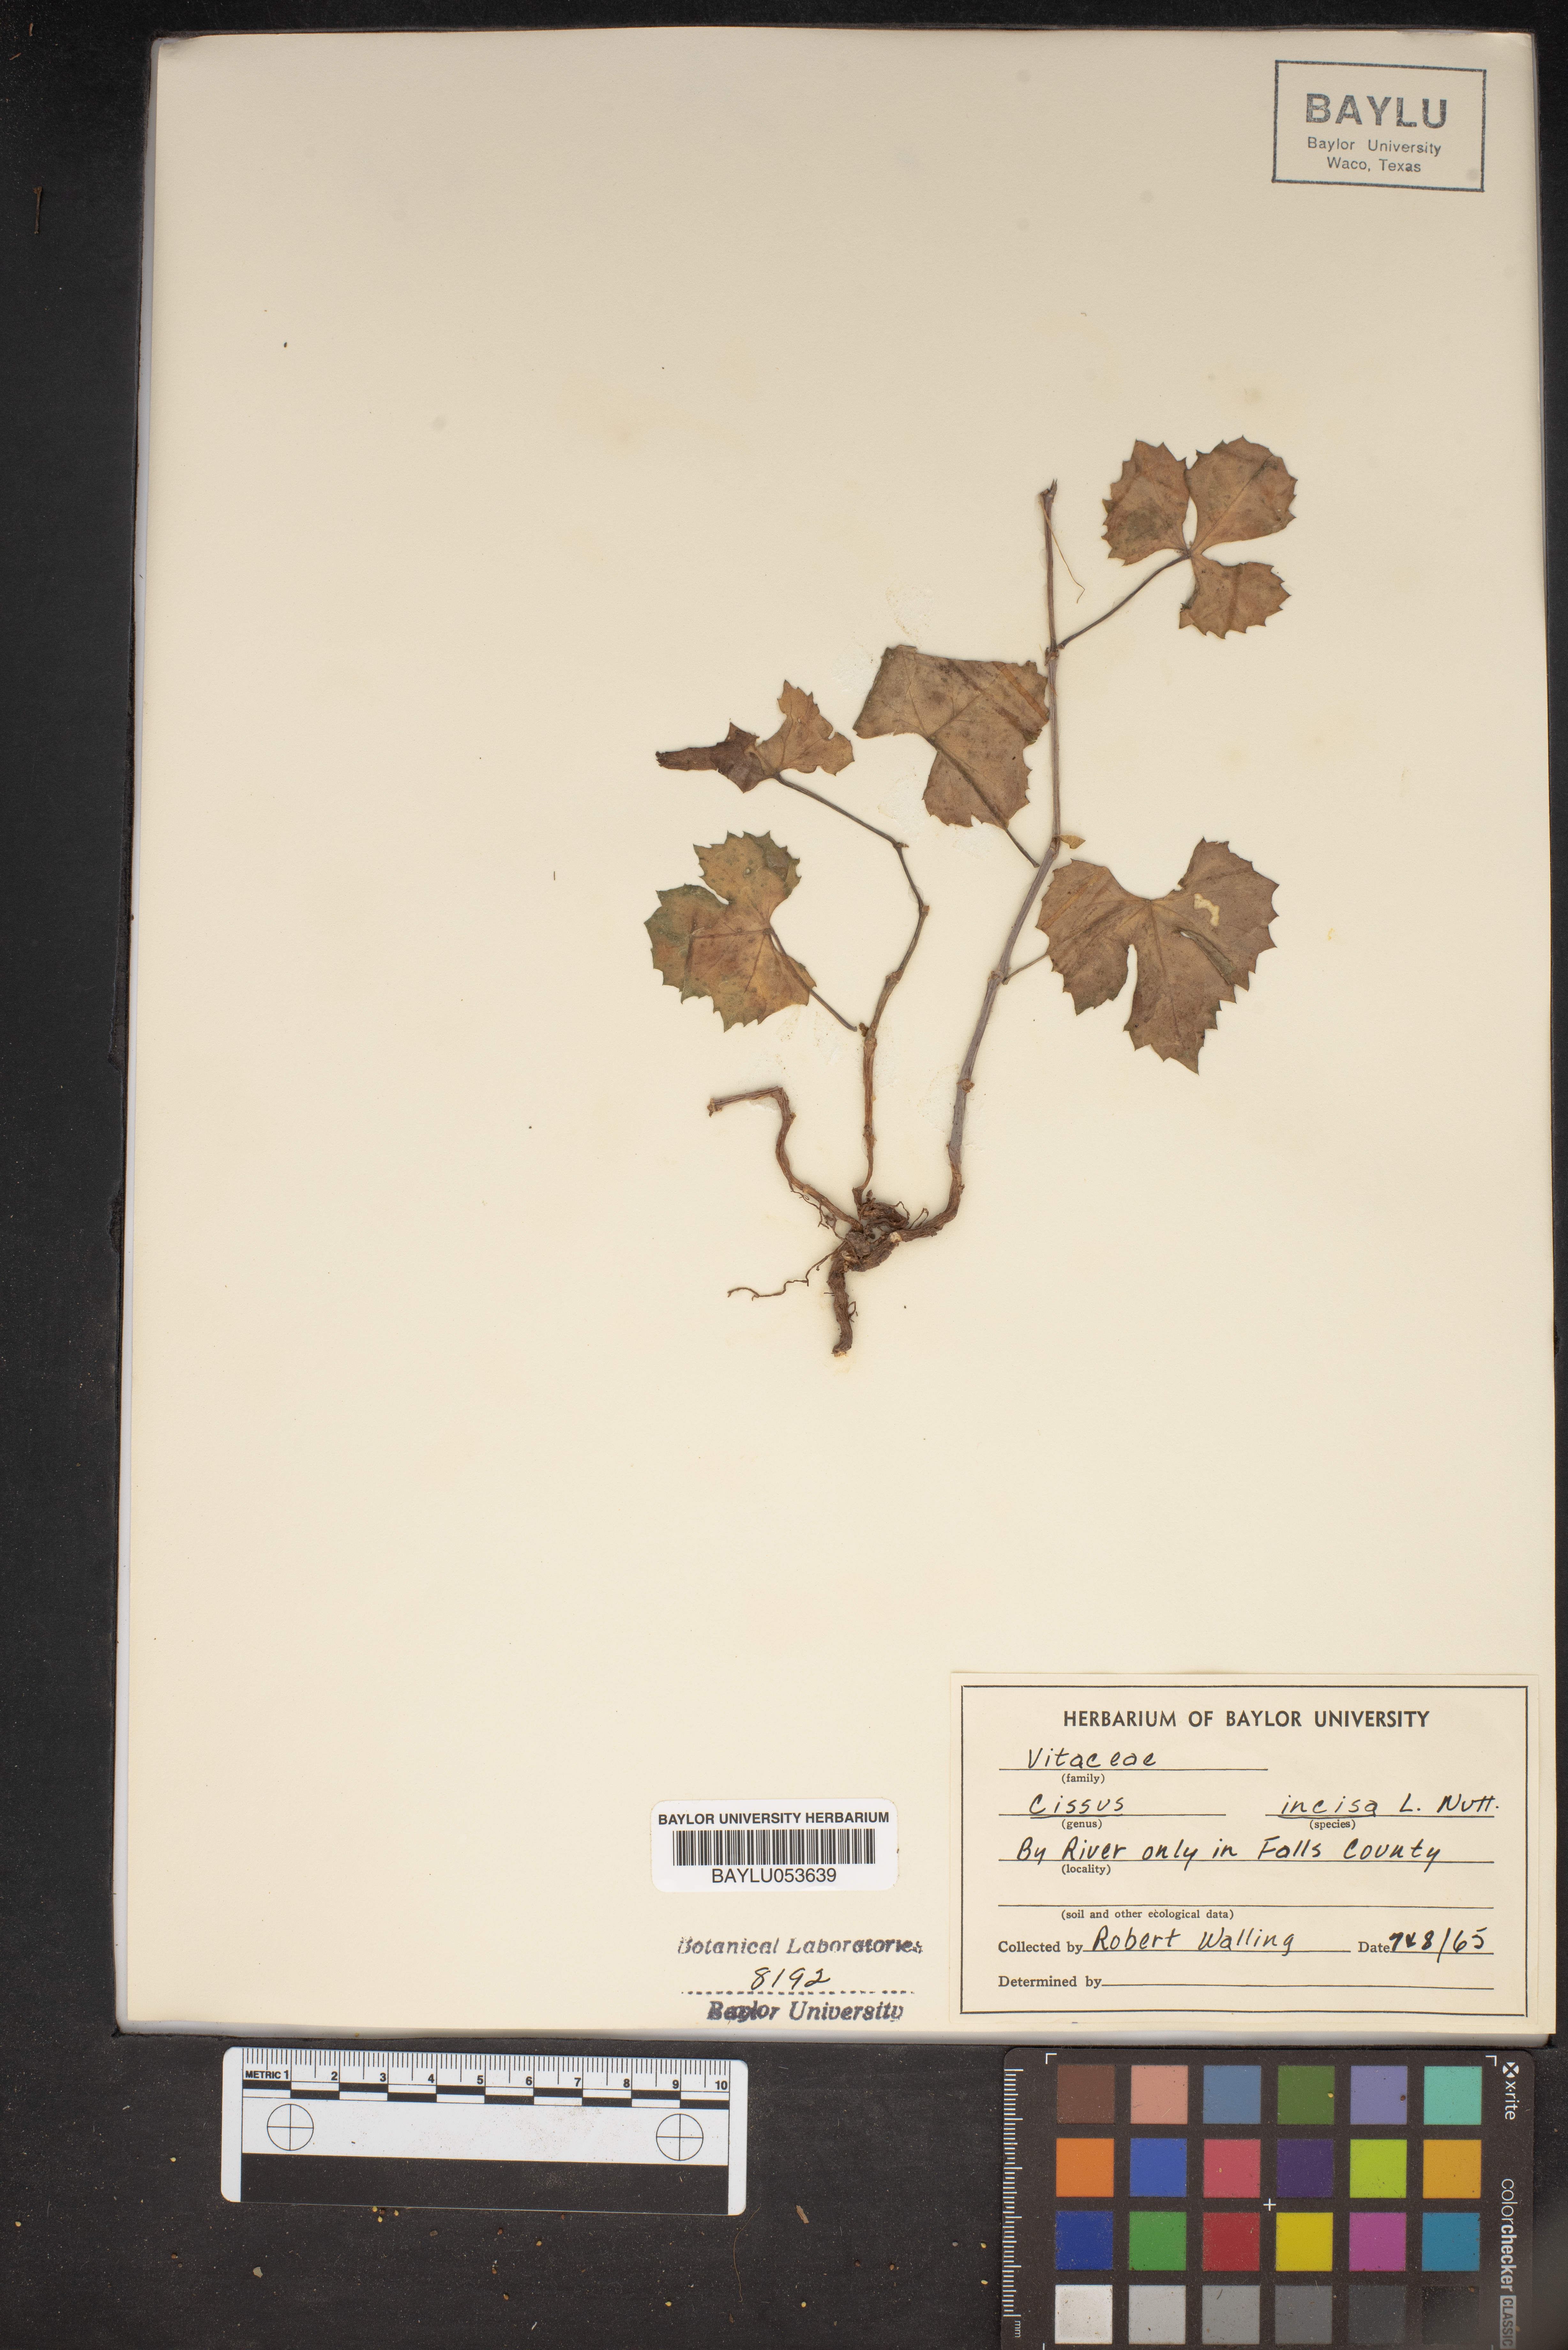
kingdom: Plantae
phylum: Tracheophyta
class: Magnoliopsida
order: Vitales
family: Vitaceae
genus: Cissus
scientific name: Cissus trifoliata
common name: Vine-sorrel
